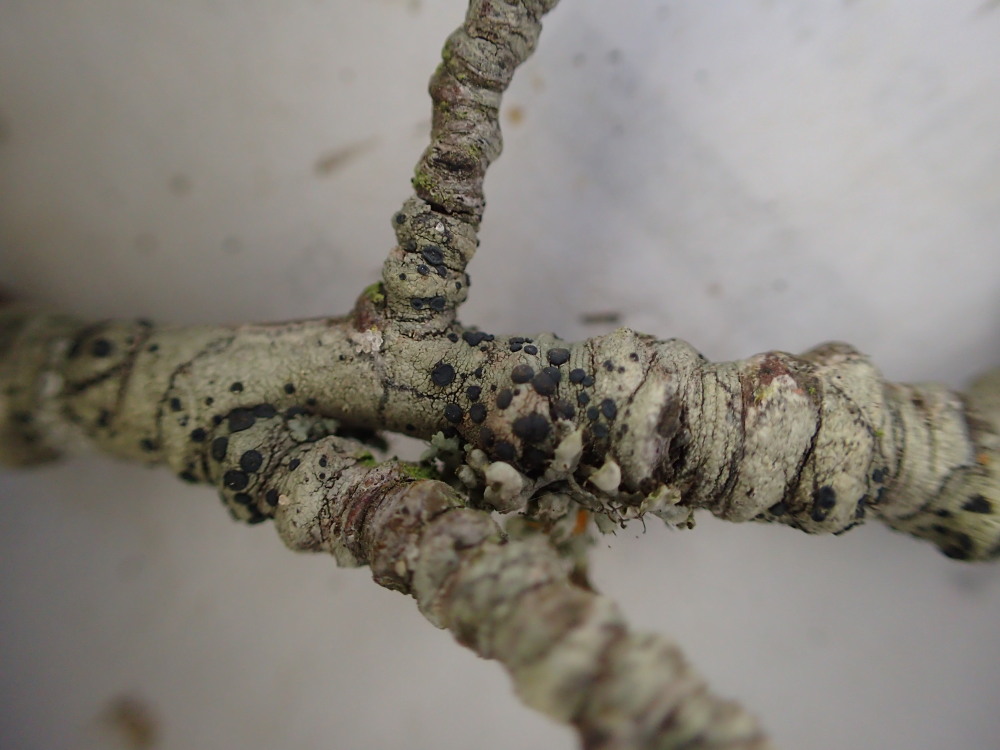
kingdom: Fungi
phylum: Ascomycota
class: Lecanoromycetes
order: Lecanorales
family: Lecanoraceae
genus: Lecidella
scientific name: Lecidella elaeochroma
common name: grågrøn skivelav
